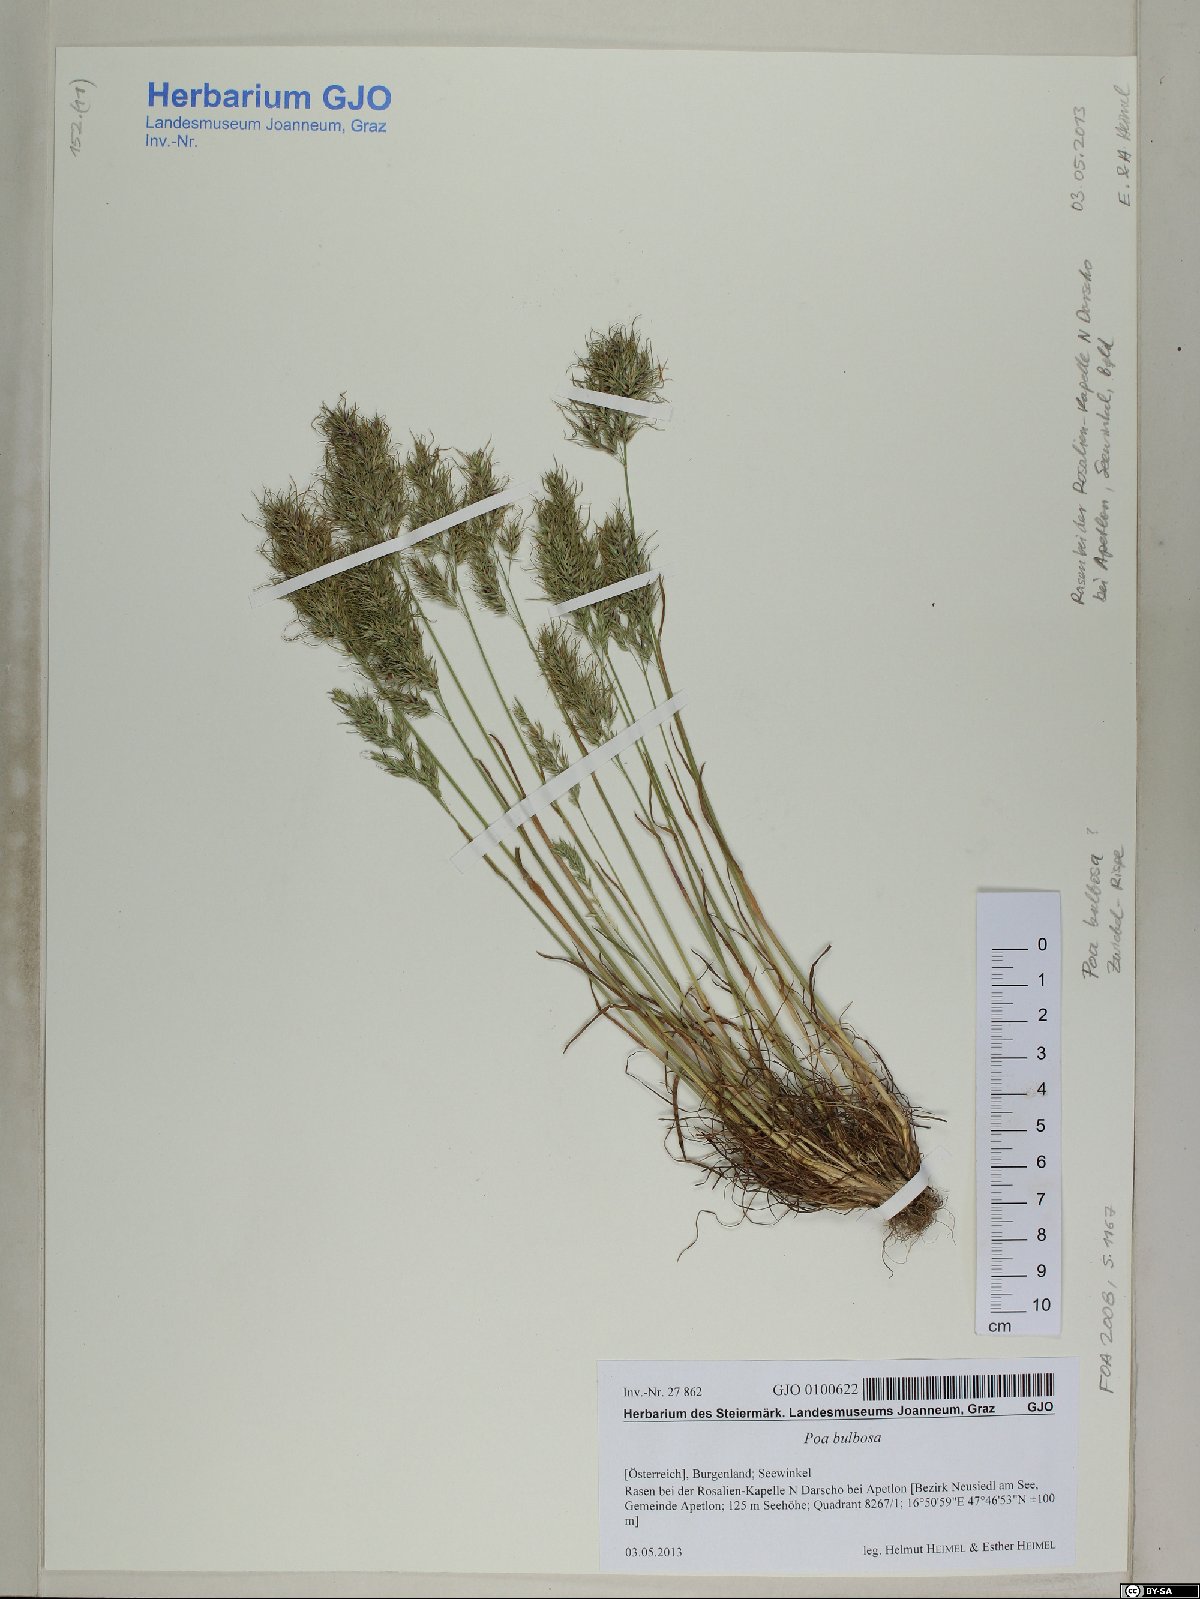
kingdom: Plantae
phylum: Tracheophyta
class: Liliopsida
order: Poales
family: Poaceae
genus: Poa
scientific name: Poa bulbosa
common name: Bulbous bluegrass
